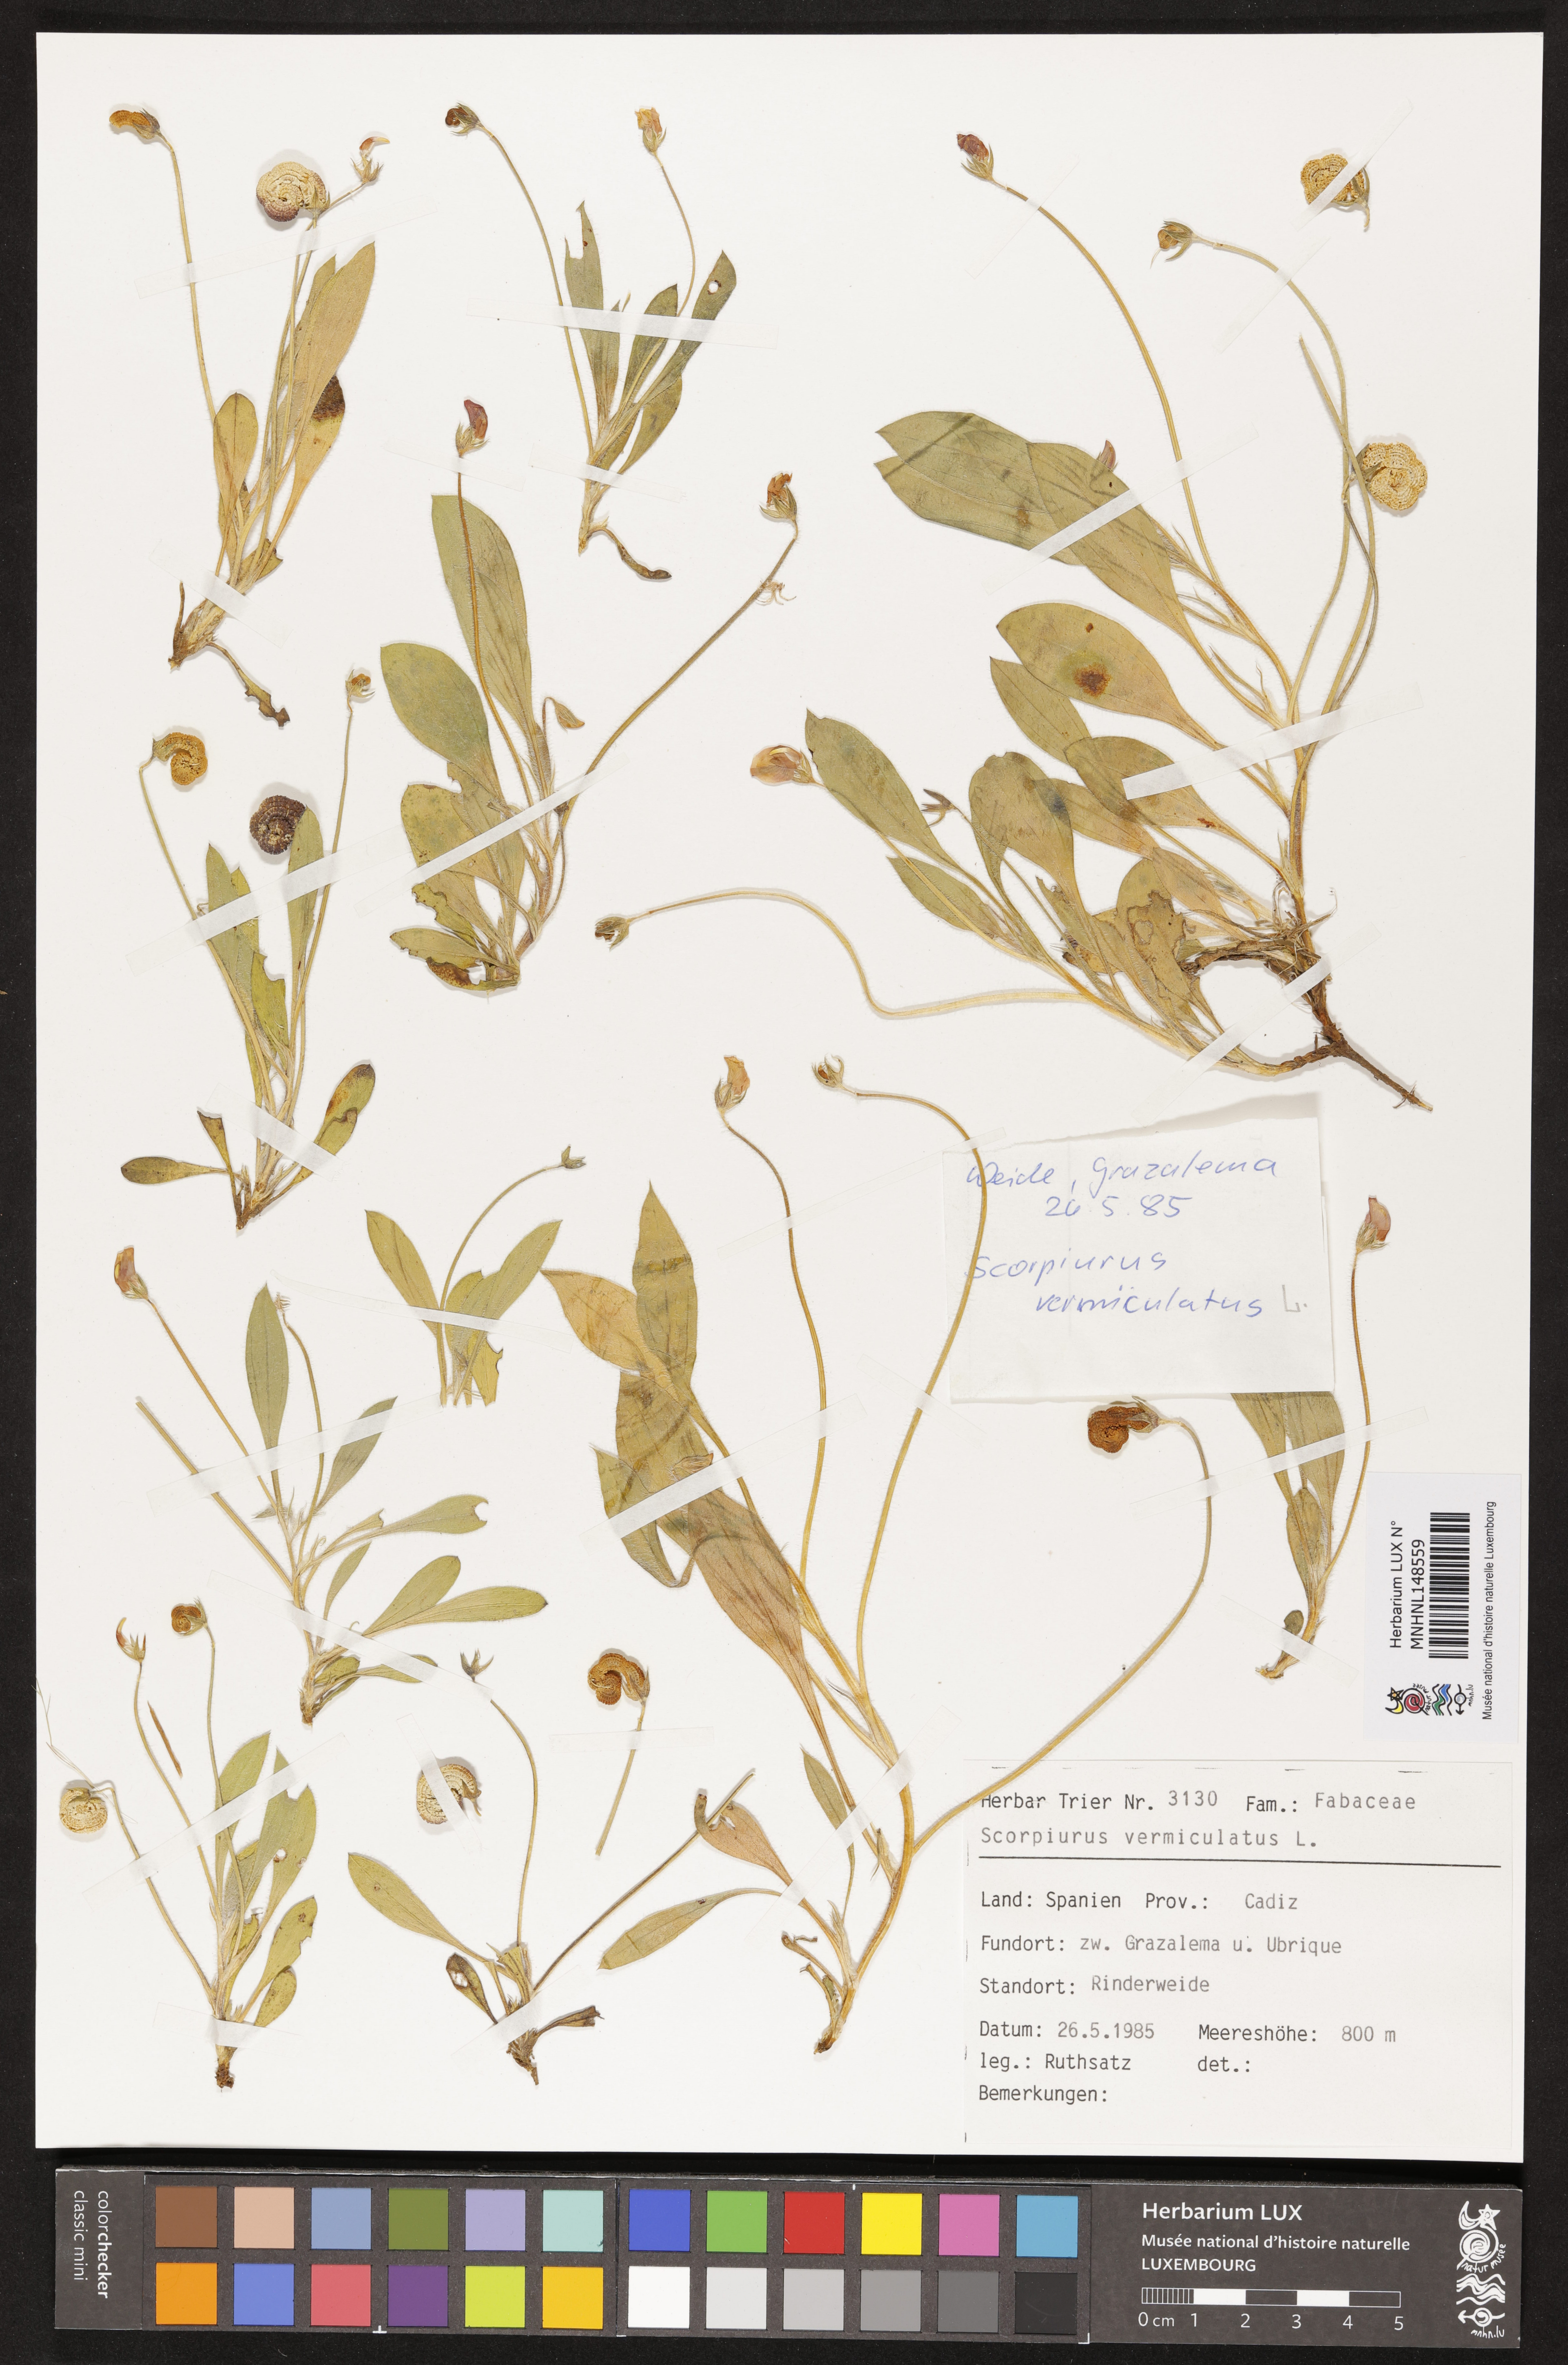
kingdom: Plantae
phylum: Tracheophyta
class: Magnoliopsida
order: Fabales
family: Fabaceae
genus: Scorpiurus
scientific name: Scorpiurus vermiculatus
